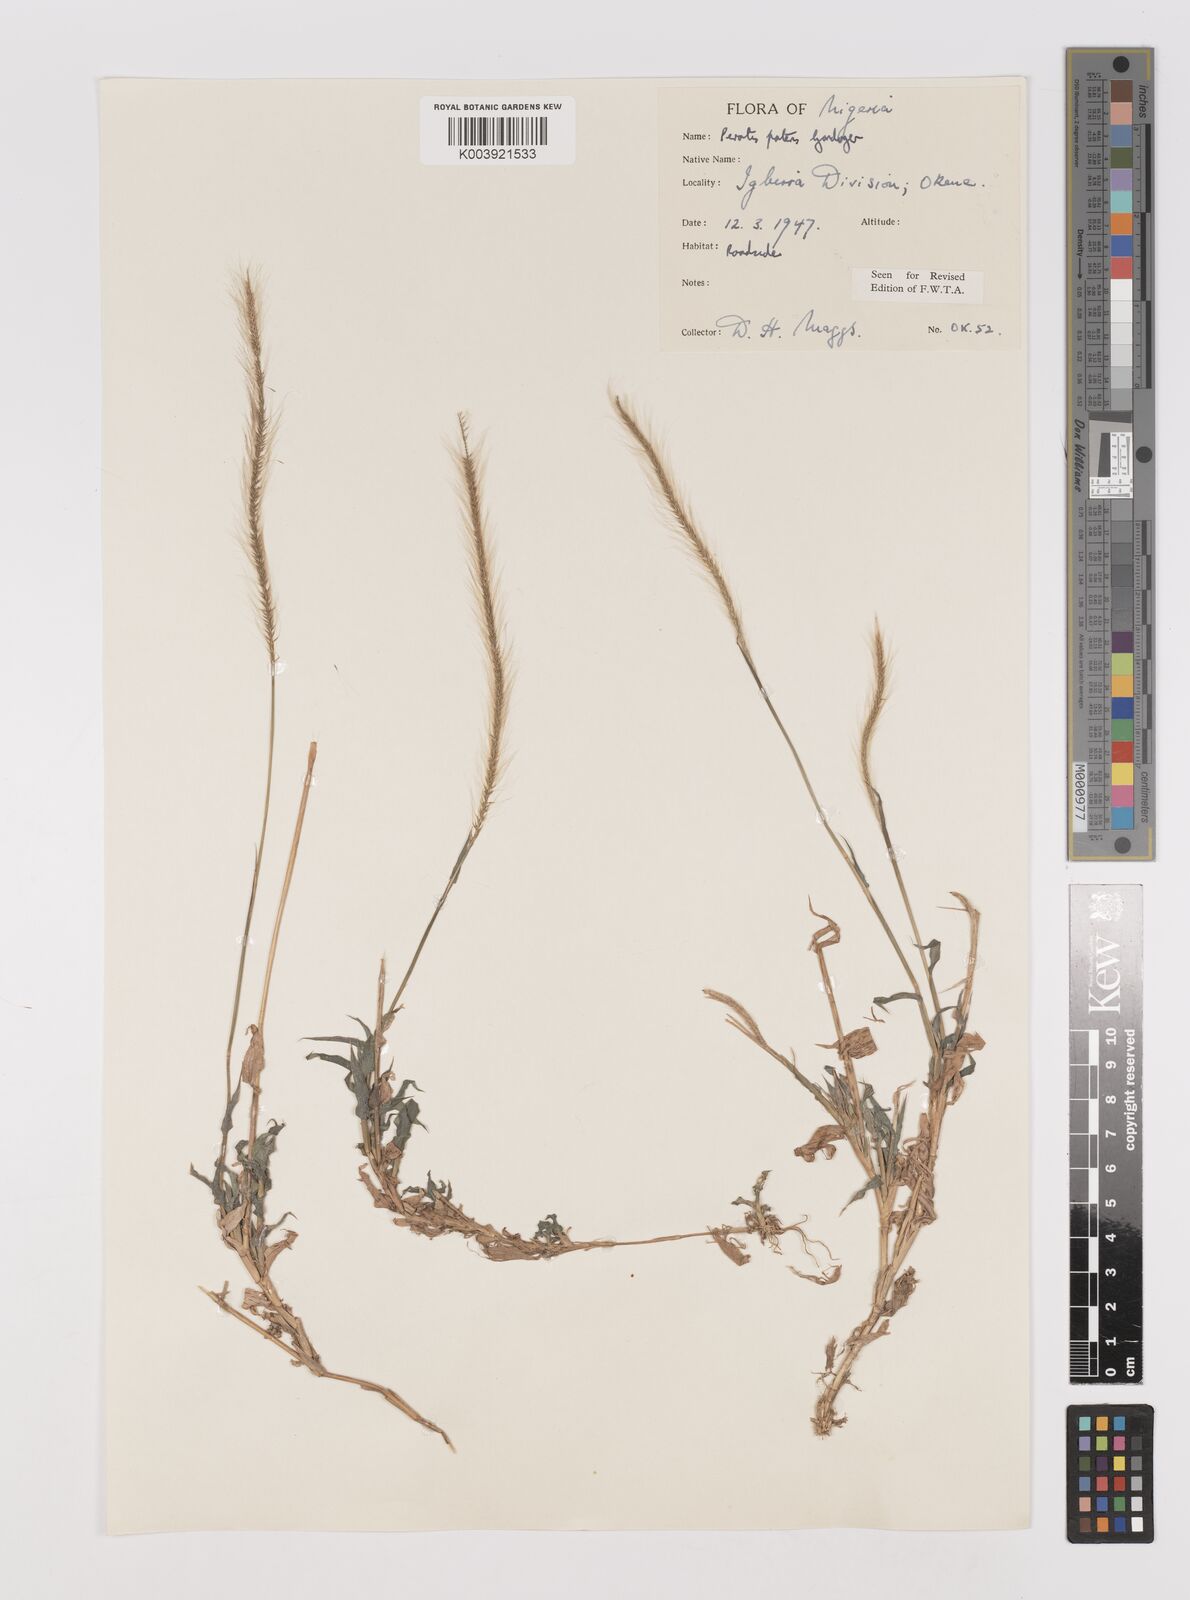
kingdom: Plantae
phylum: Tracheophyta
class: Liliopsida
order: Poales
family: Poaceae
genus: Perotis
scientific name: Perotis patens
